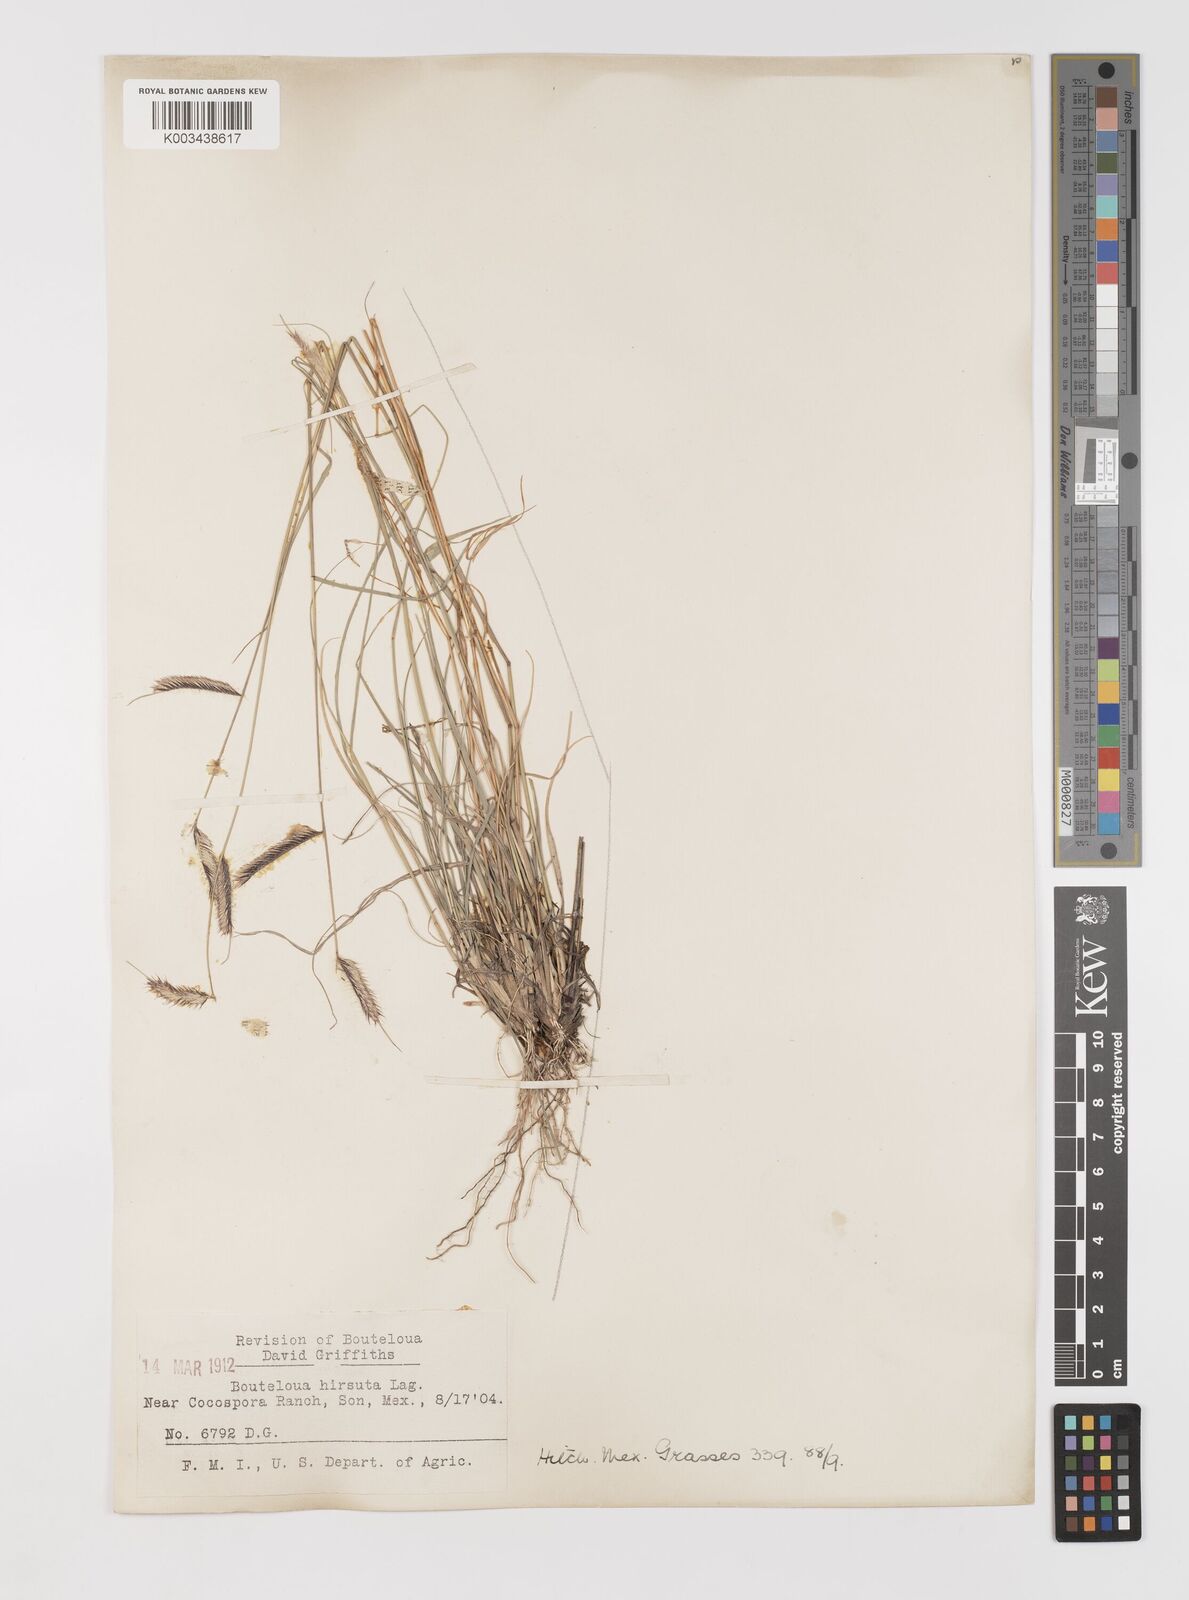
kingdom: Plantae
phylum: Tracheophyta
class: Liliopsida
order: Poales
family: Poaceae
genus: Bouteloua
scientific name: Bouteloua hirsuta
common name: Hairy grama
